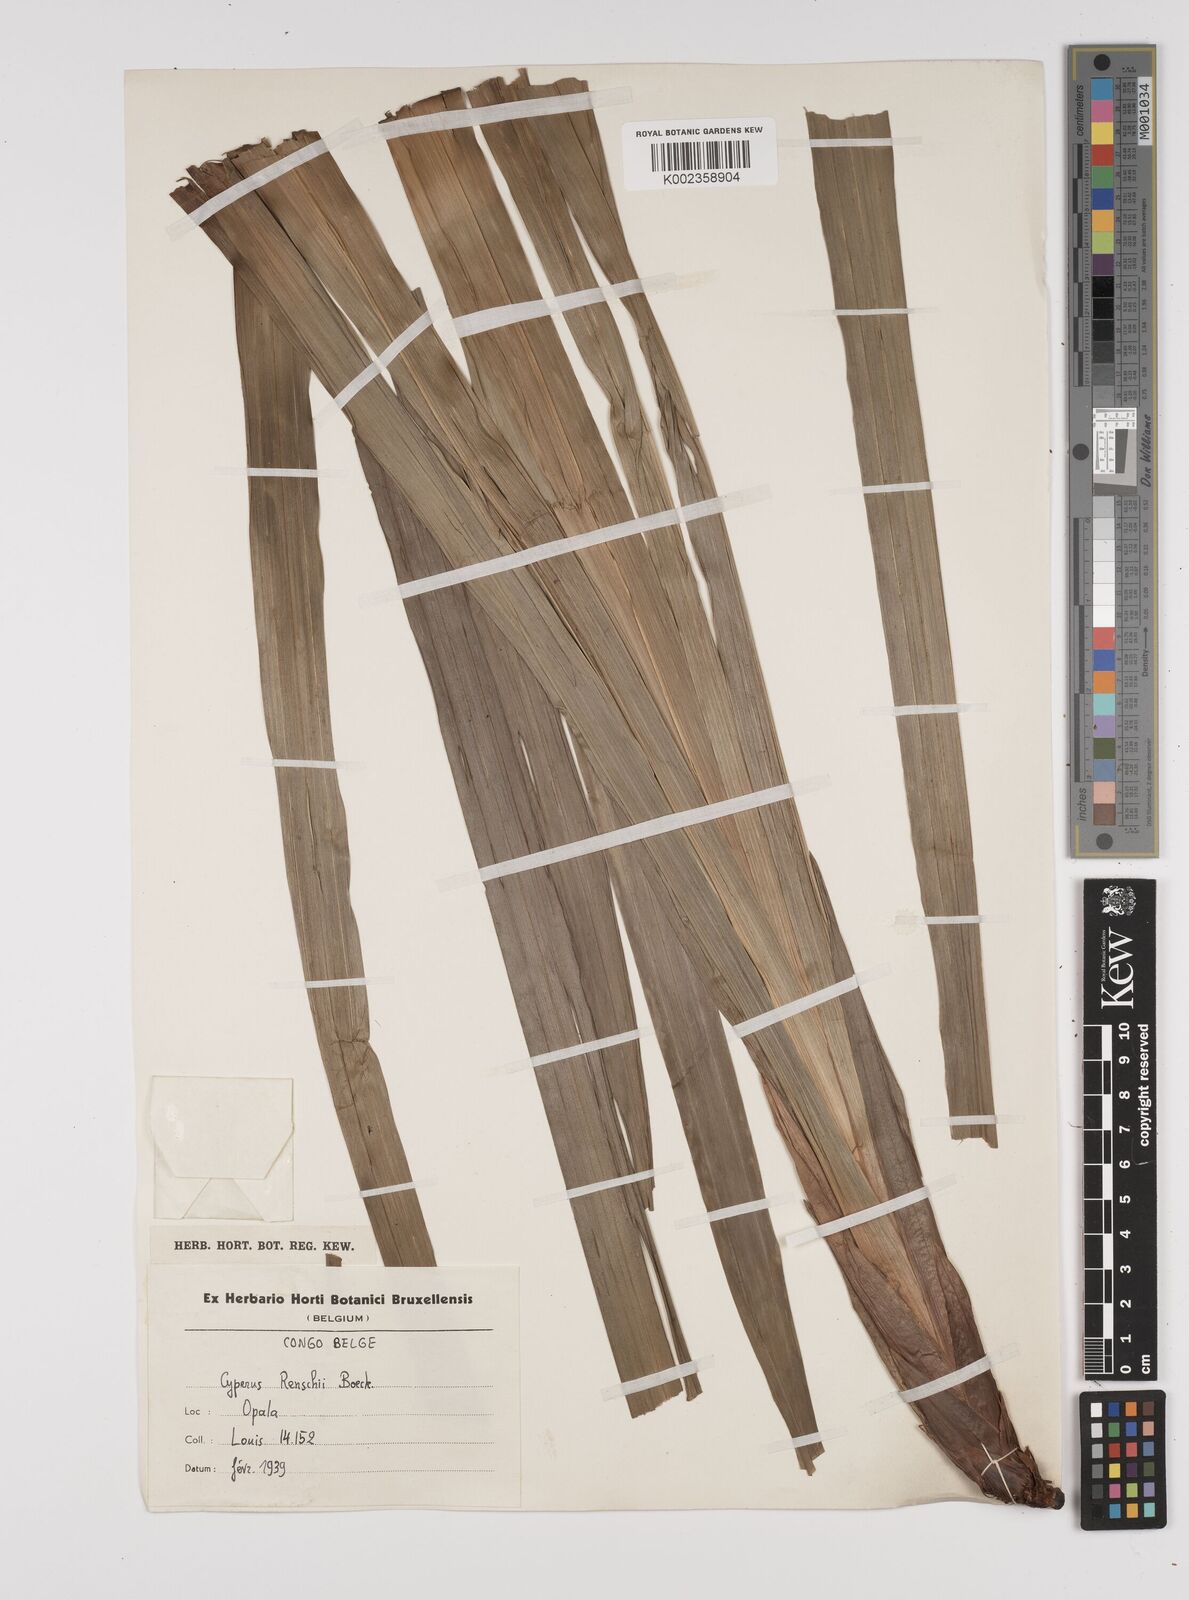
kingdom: Plantae
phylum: Tracheophyta
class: Liliopsida
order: Poales
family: Cyperaceae
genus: Cyperus
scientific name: Cyperus renschii
